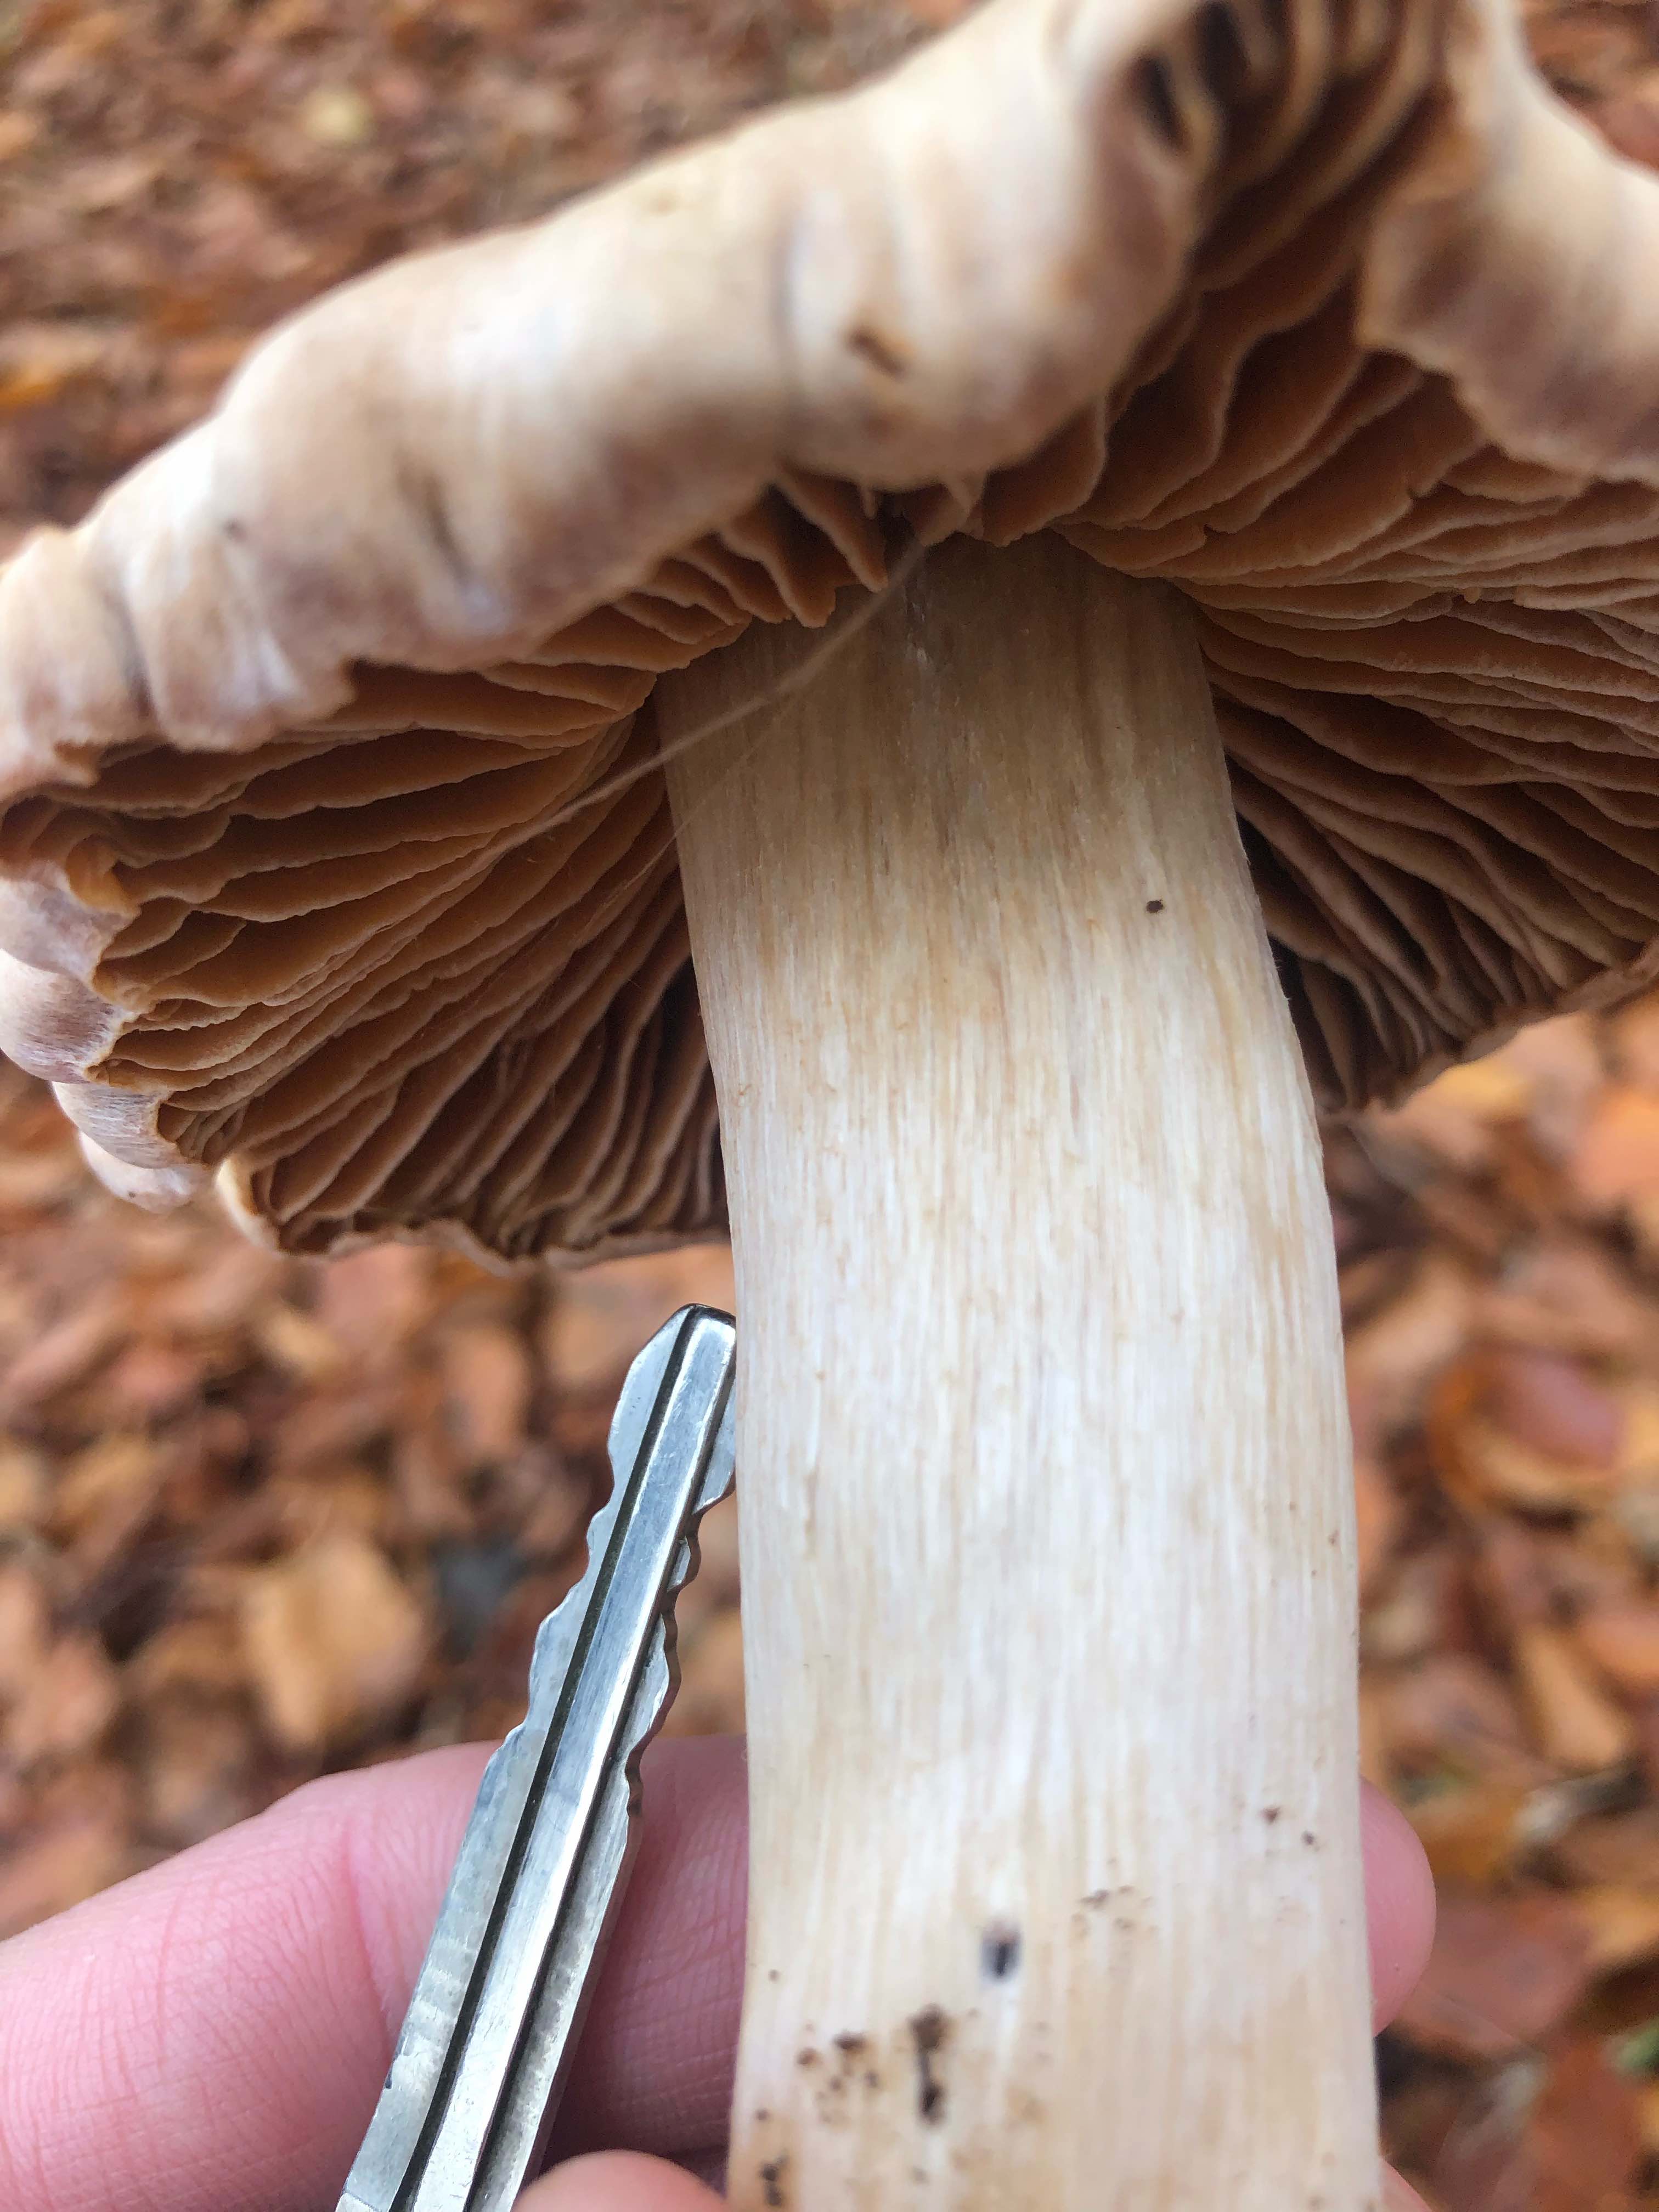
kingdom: Fungi
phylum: Basidiomycota
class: Agaricomycetes
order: Agaricales
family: Cortinariaceae
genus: Cortinarius
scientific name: Cortinarius
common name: jod-slørhat
